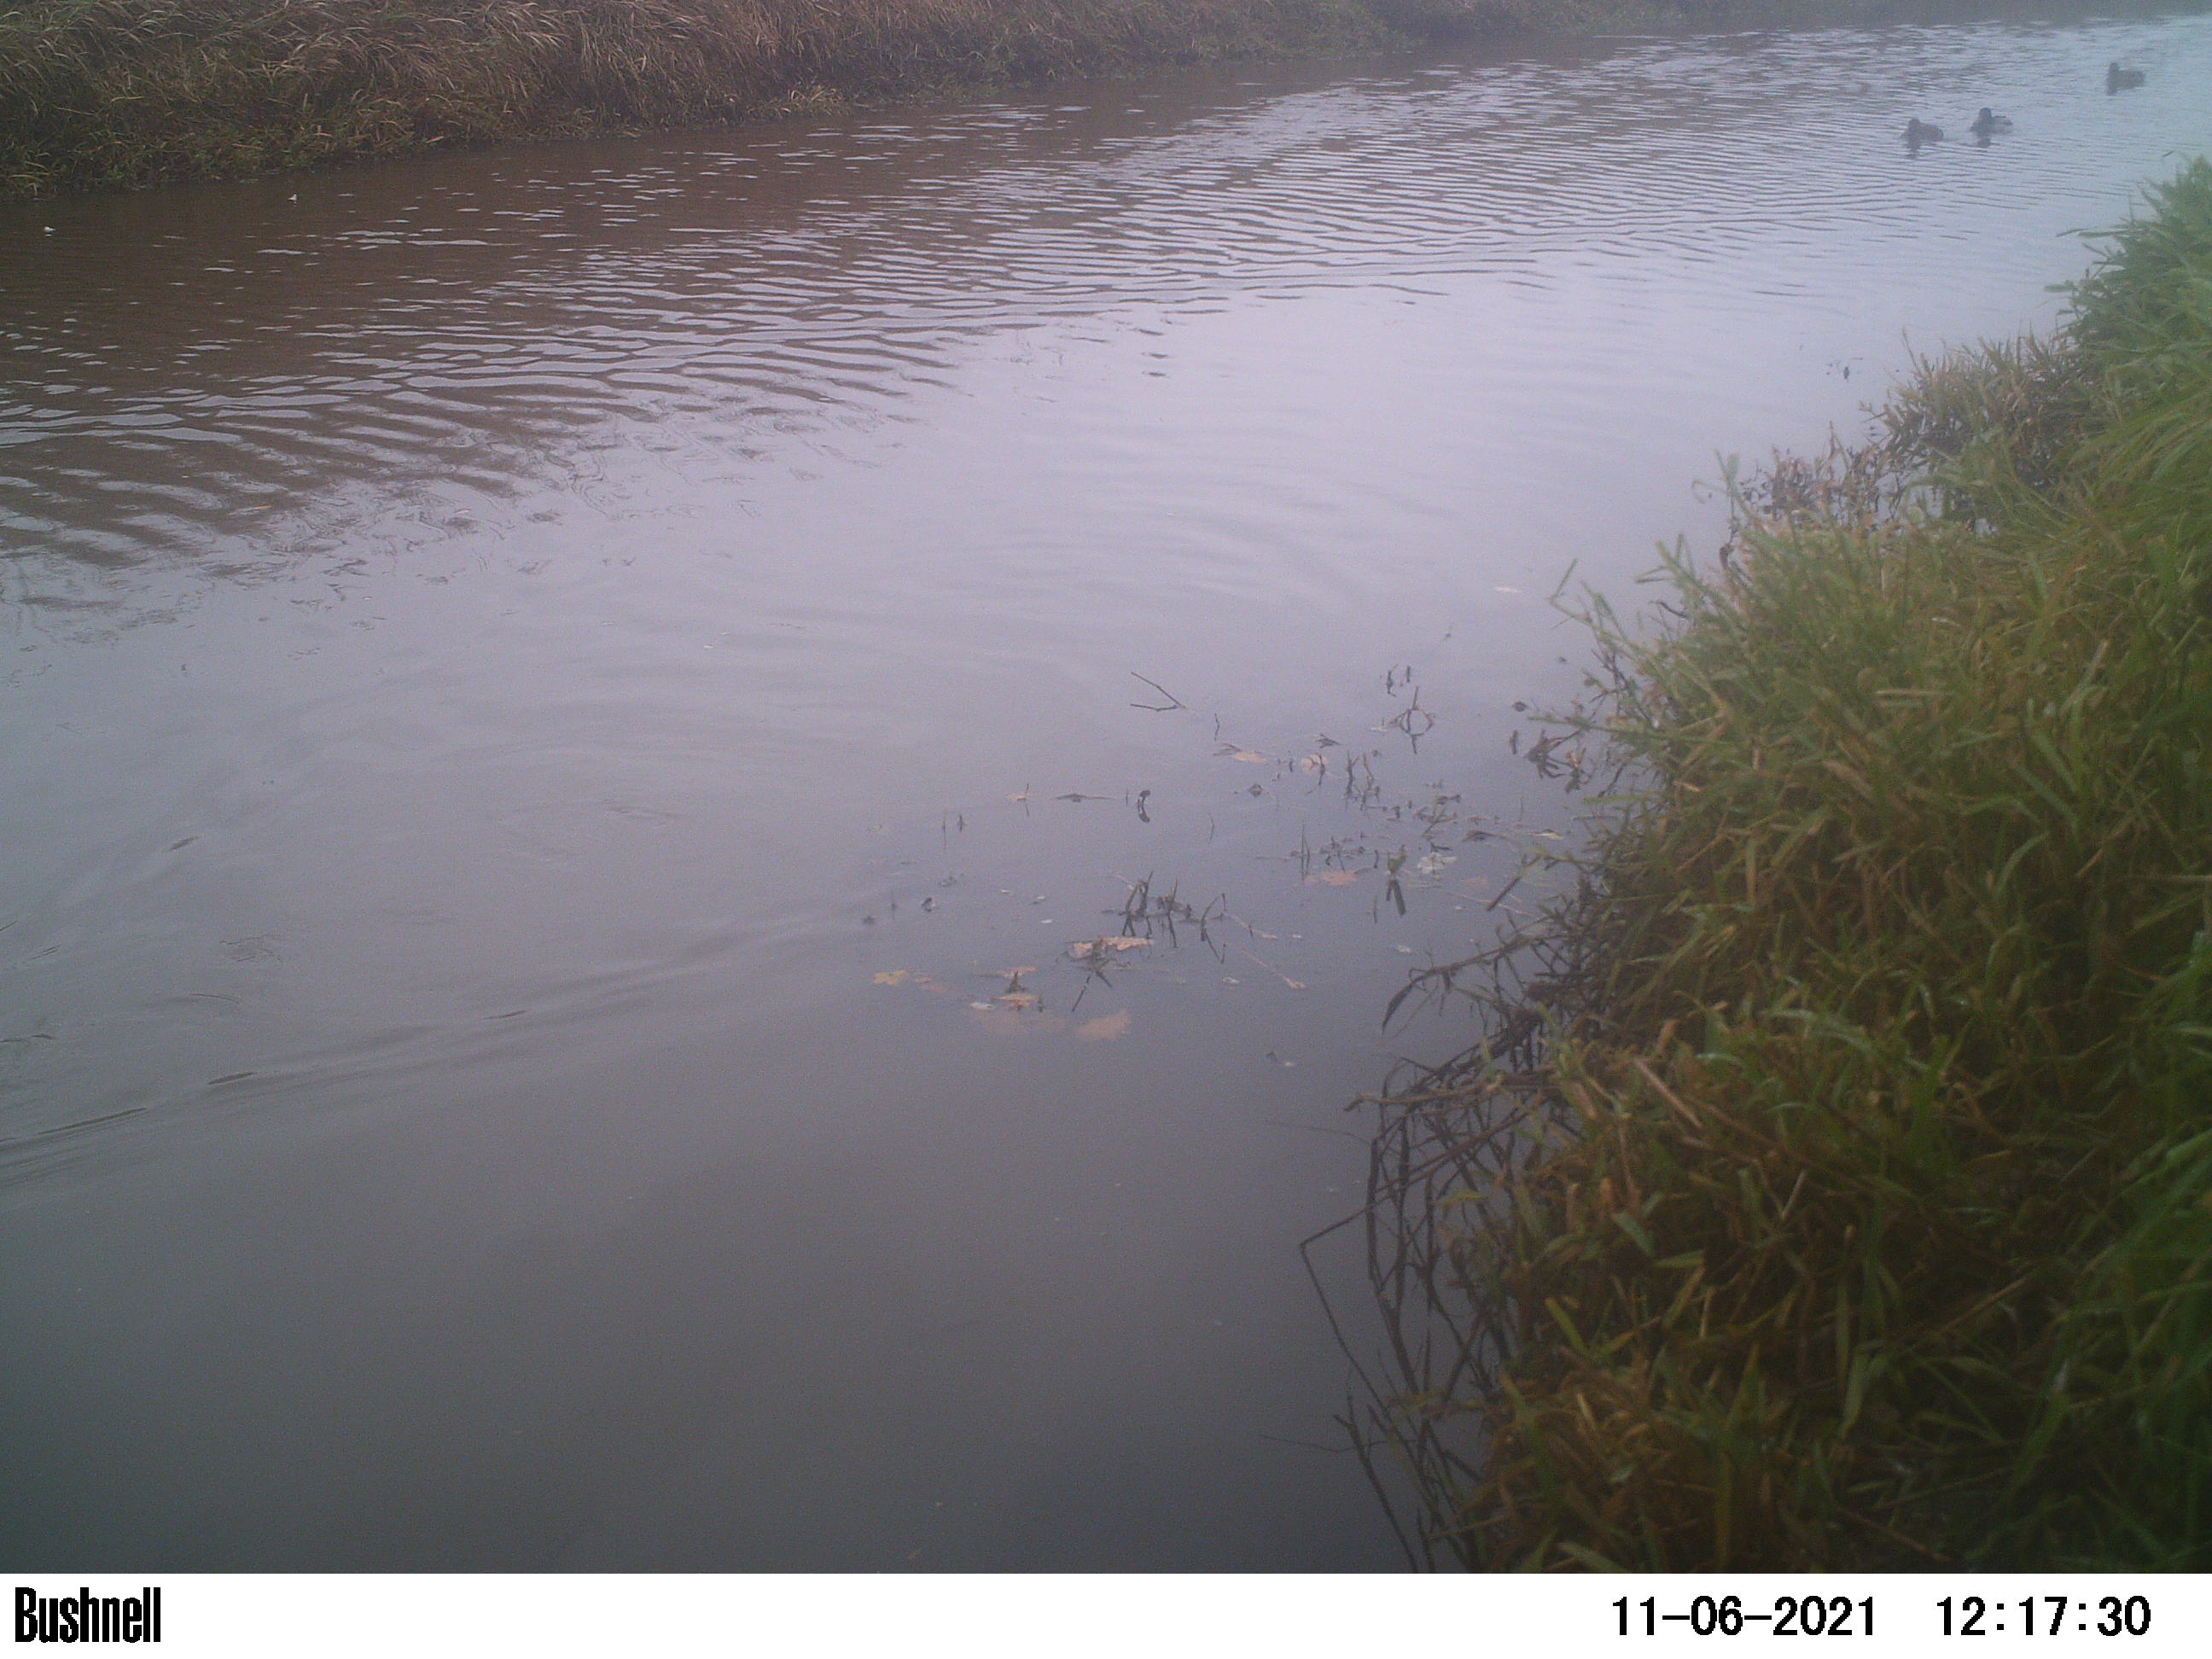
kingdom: Animalia
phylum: Chordata
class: Aves
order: Anseriformes
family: Anatidae
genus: Anas
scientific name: Anas
